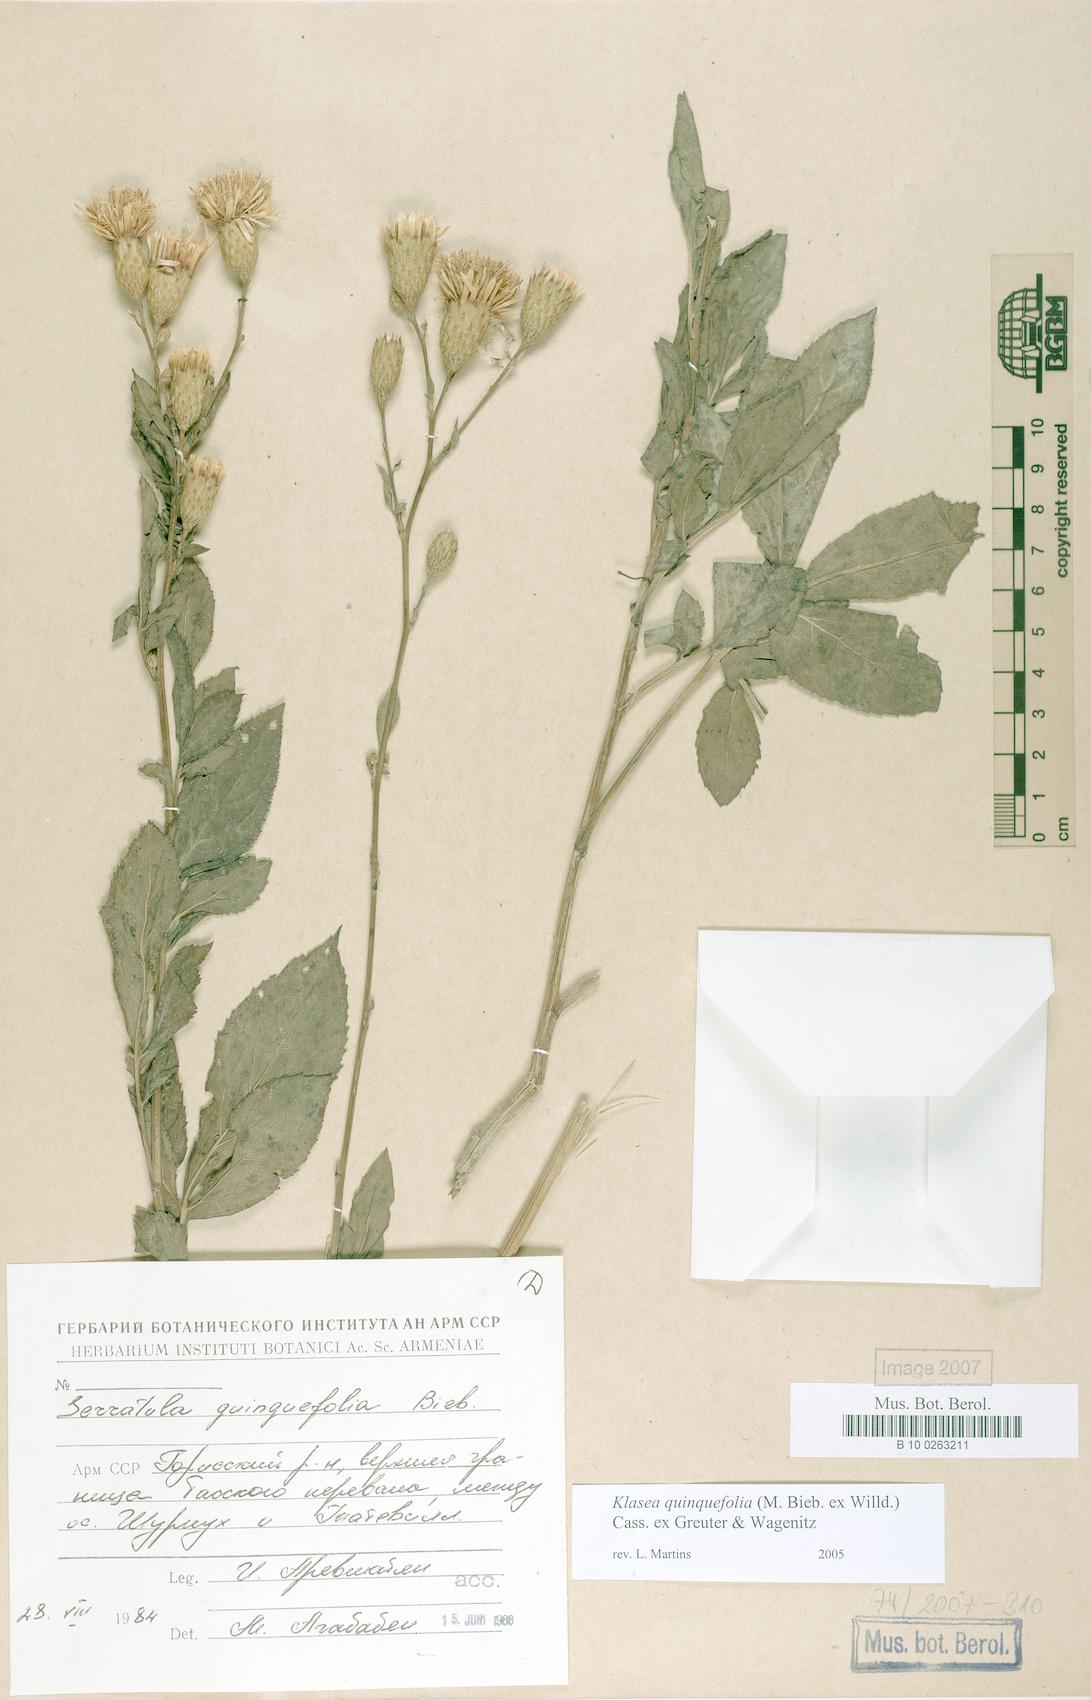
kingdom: Plantae
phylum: Tracheophyta
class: Magnoliopsida
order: Asterales
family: Asteraceae
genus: Klasea
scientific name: Klasea quinquefolia
